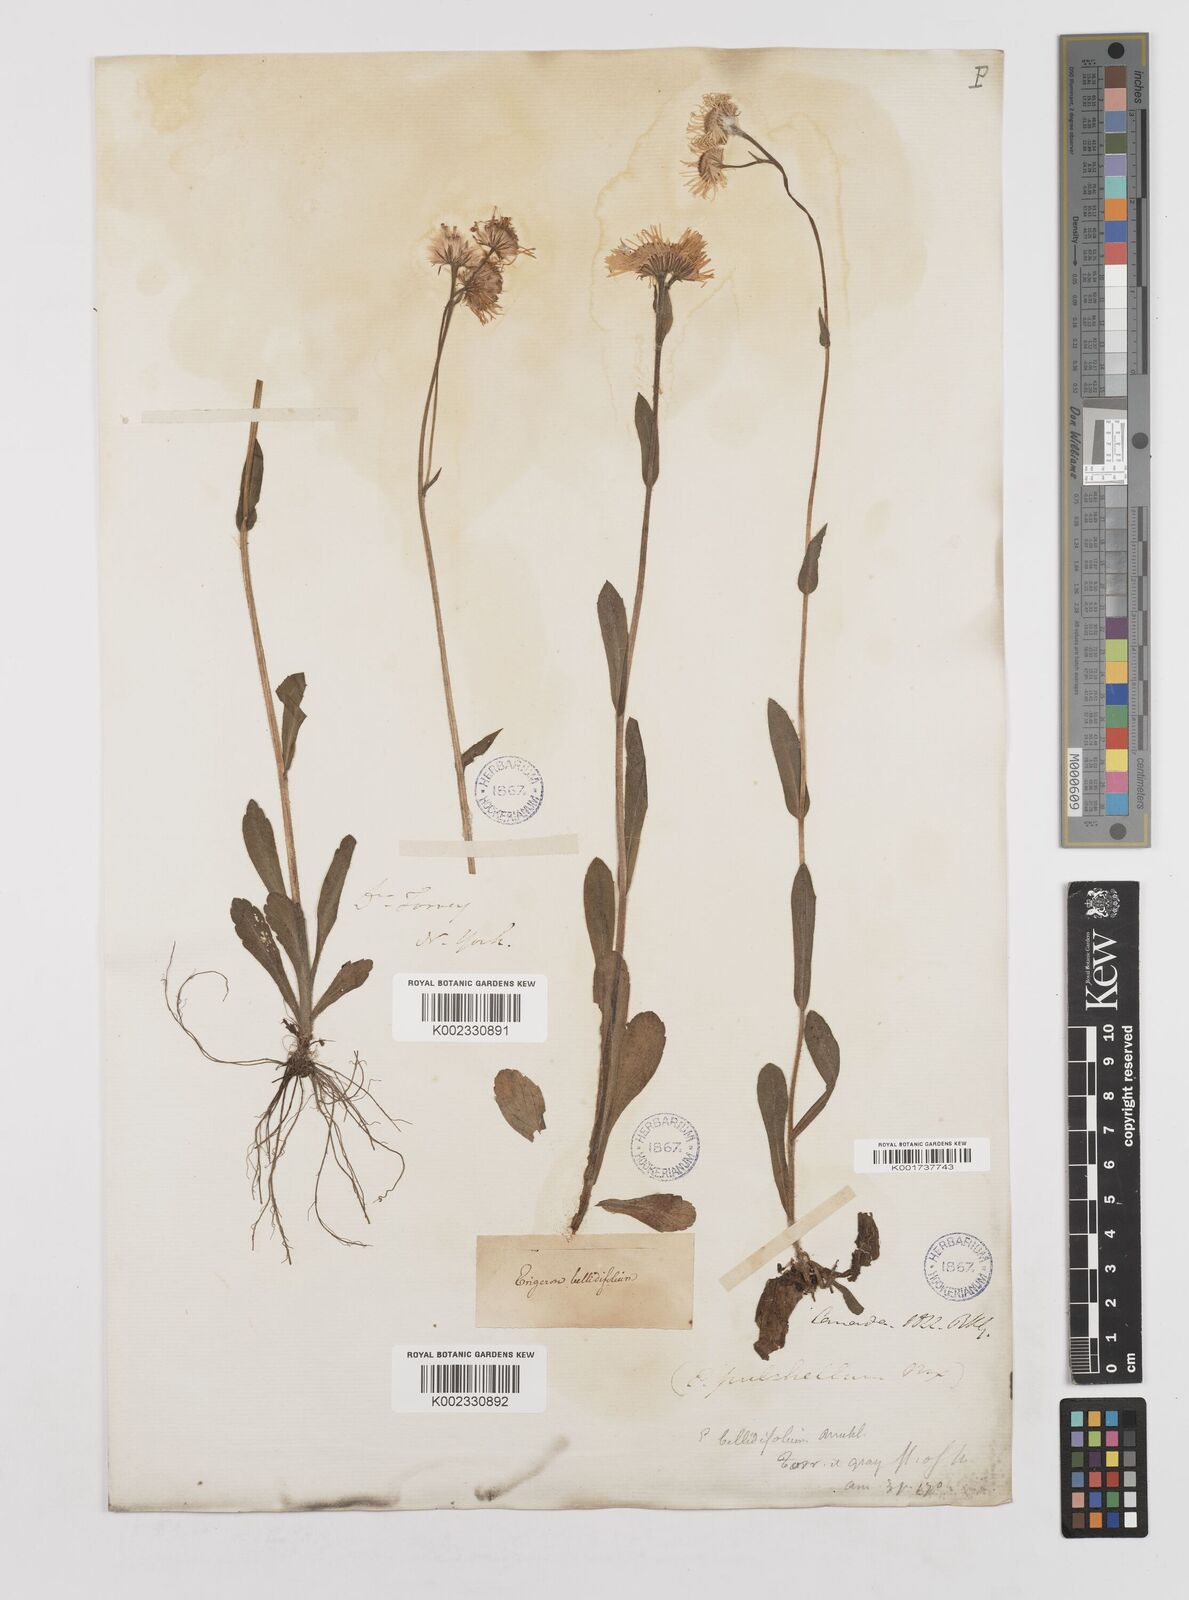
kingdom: Plantae
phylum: Tracheophyta
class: Magnoliopsida
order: Asterales
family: Asteraceae
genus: Erigeron
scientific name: Erigeron pulchellus
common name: Hairy fleabane
